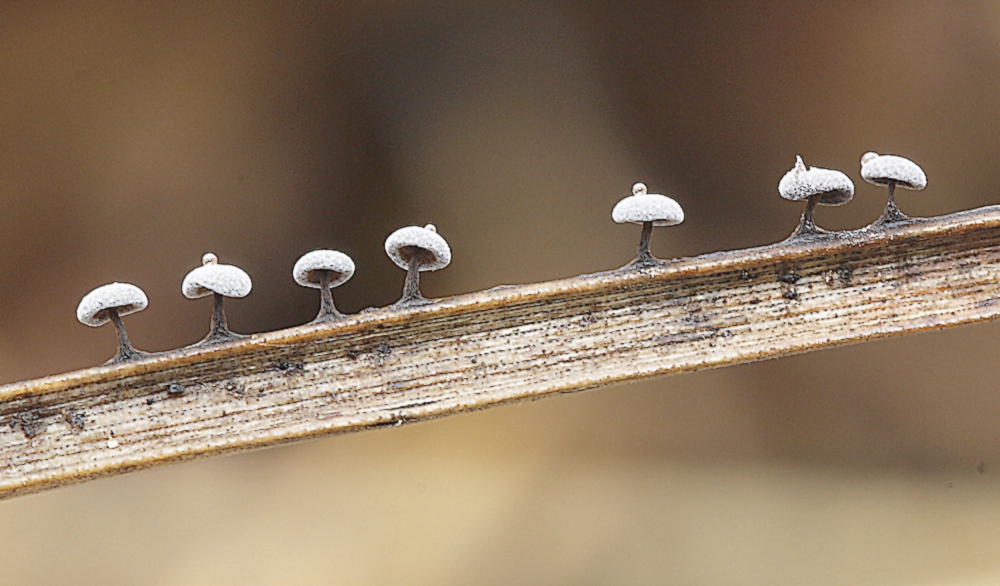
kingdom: Protozoa
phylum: Mycetozoa
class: Myxomycetes
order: Physarales
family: Didymiaceae
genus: Didymium
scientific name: Didymium clavus
